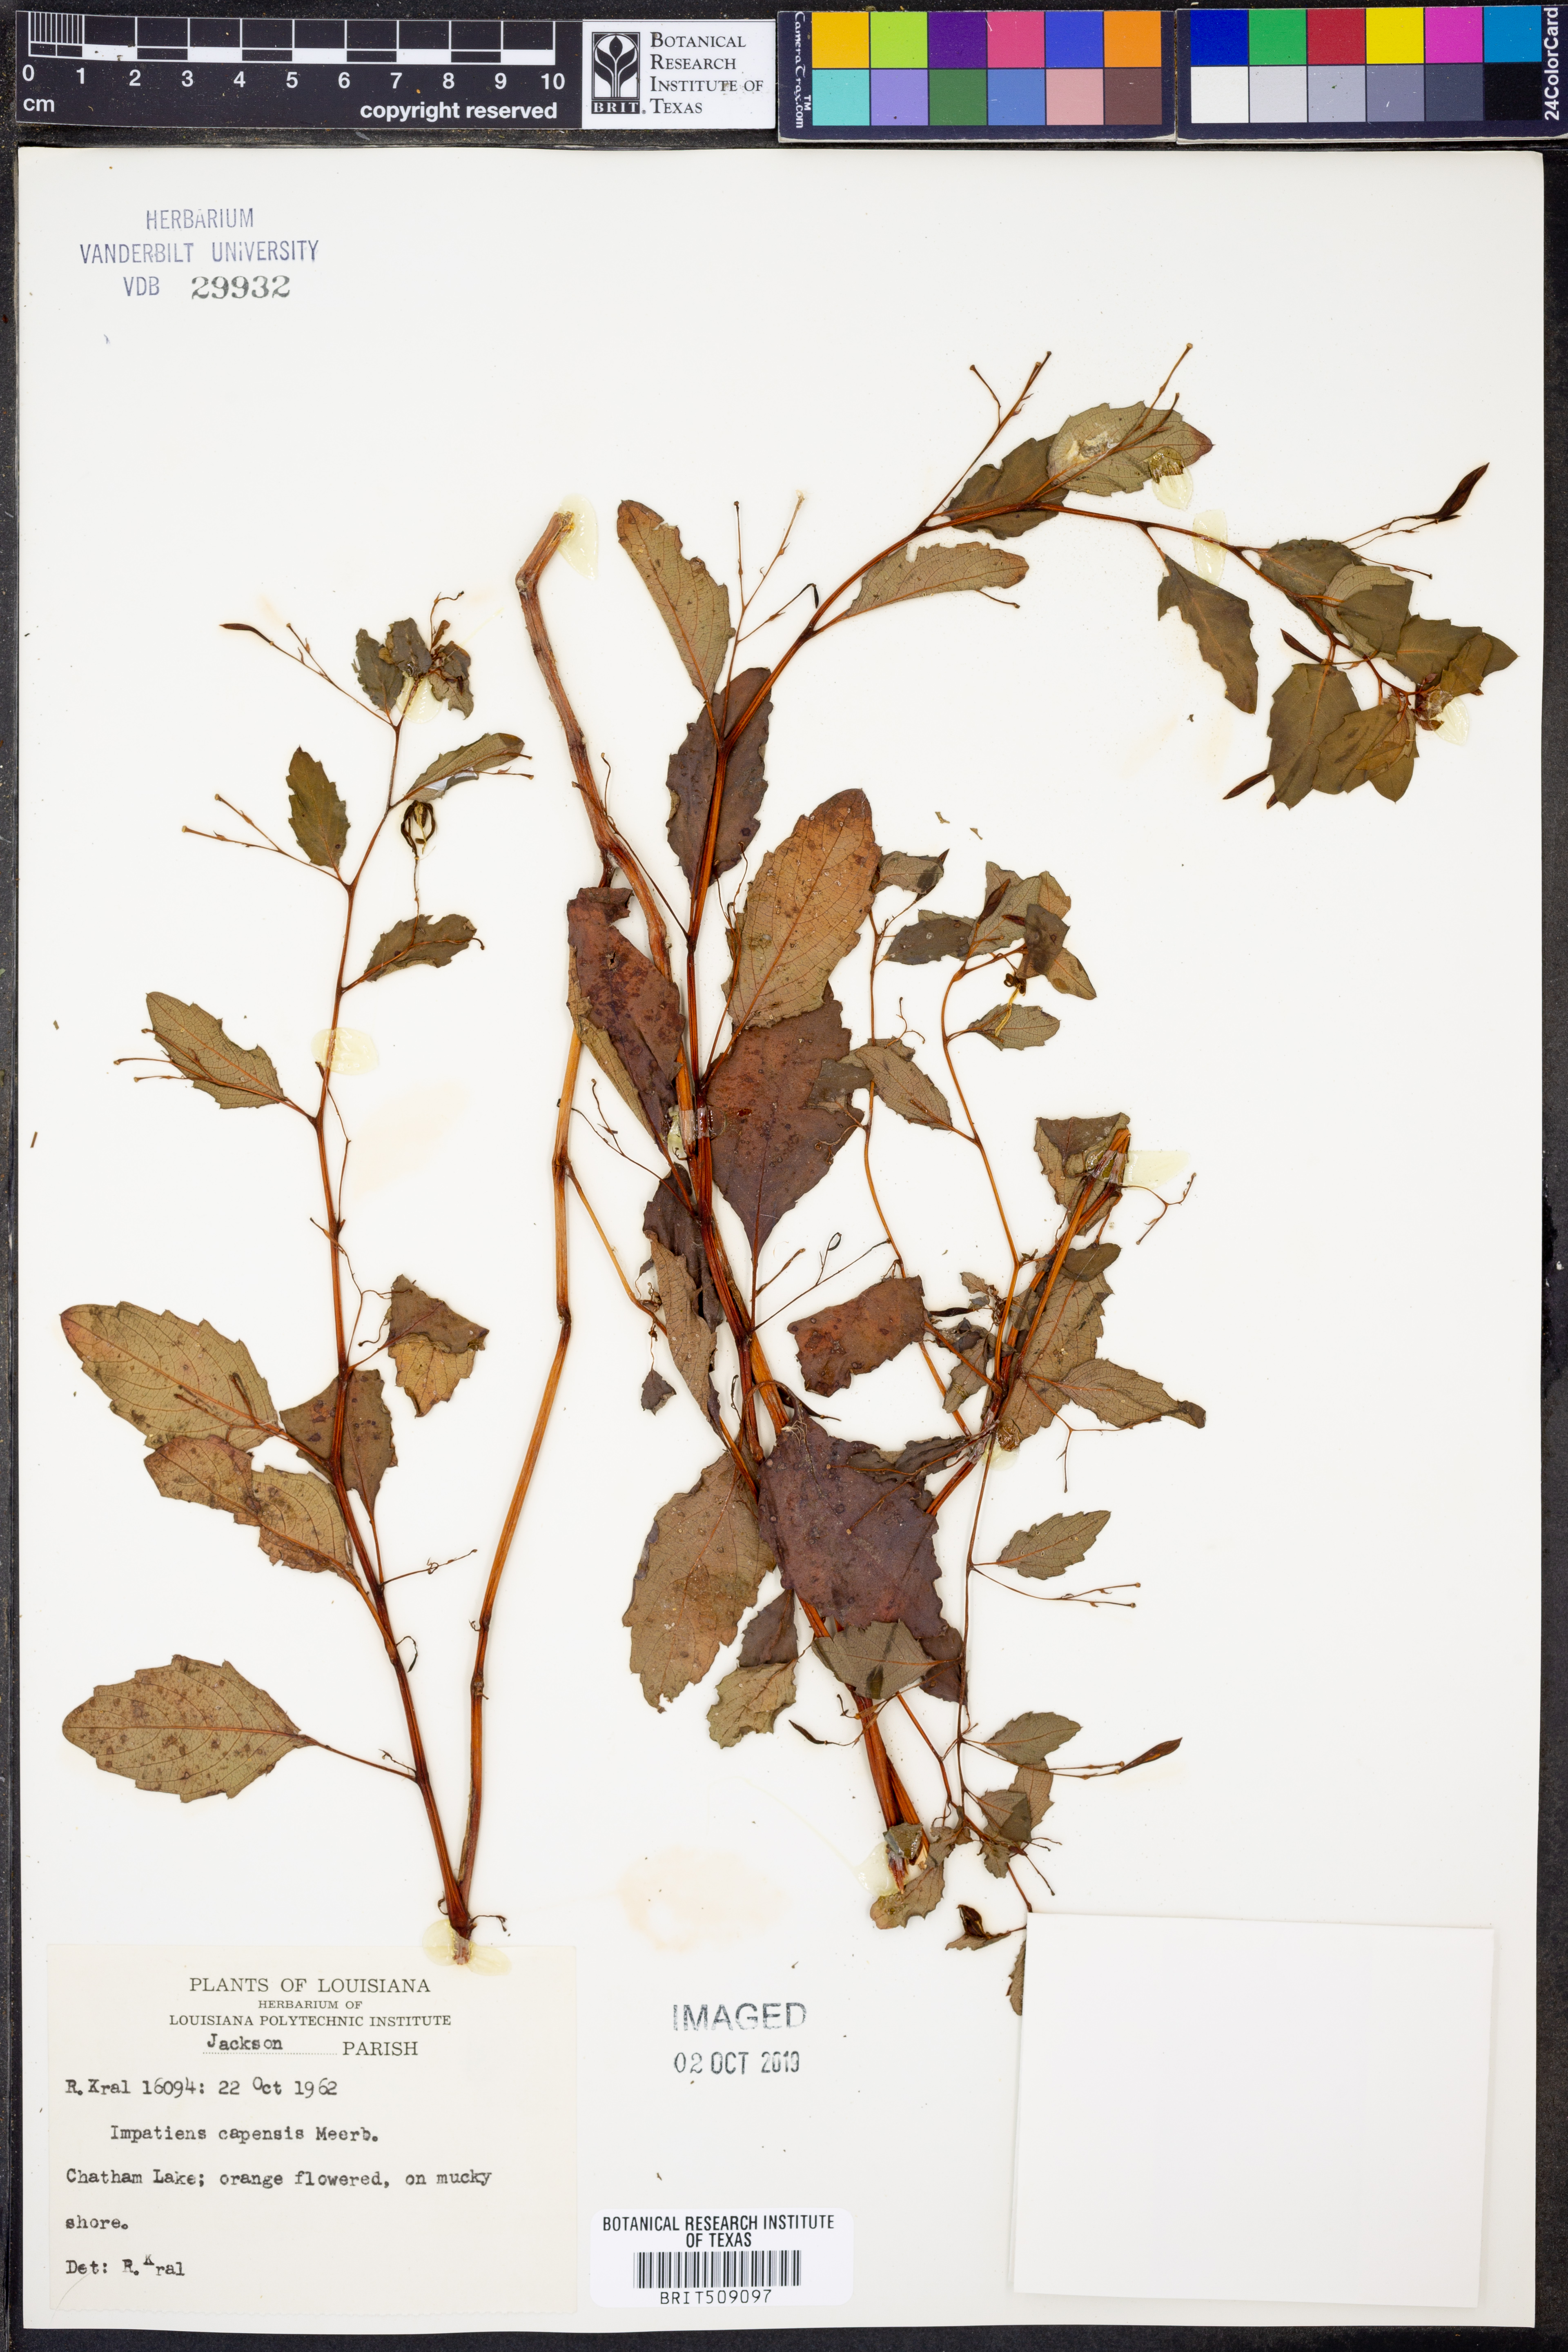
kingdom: Plantae
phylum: Tracheophyta
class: Magnoliopsida
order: Ericales
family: Balsaminaceae
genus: Impatiens
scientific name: Impatiens capensis
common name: Orange balsam
